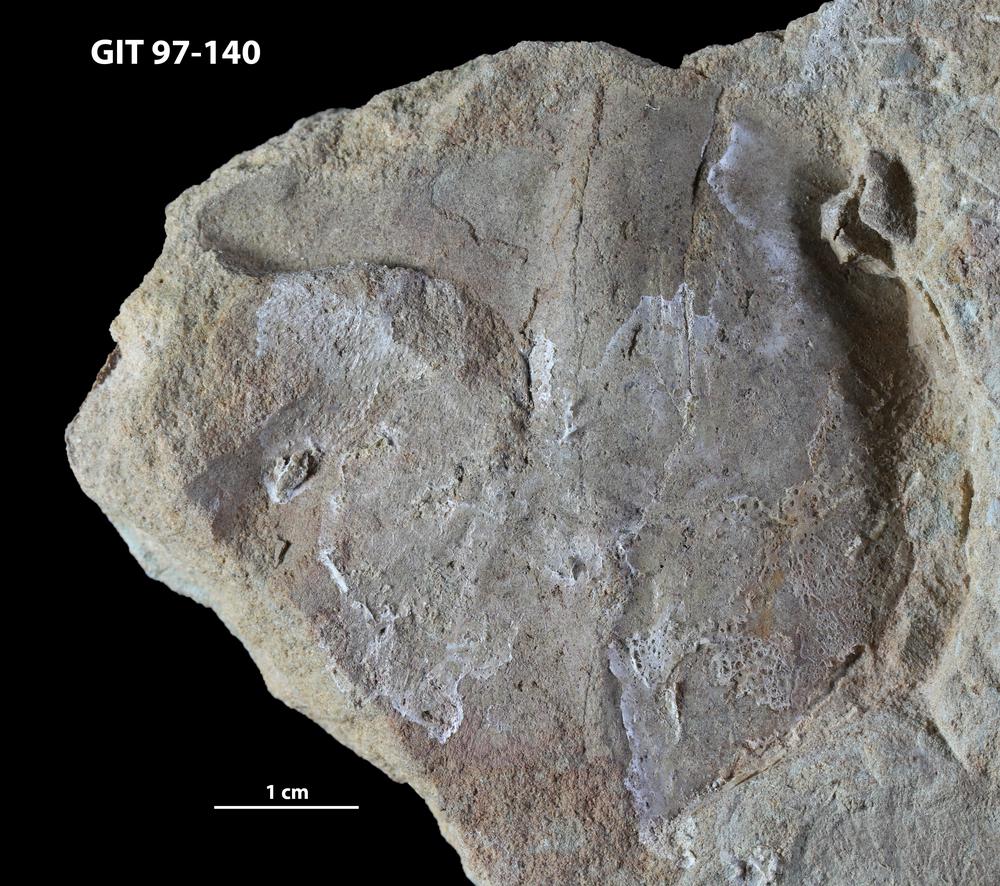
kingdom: Animalia
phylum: Chordata
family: Holonematidae
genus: Holonema
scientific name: Holonema
